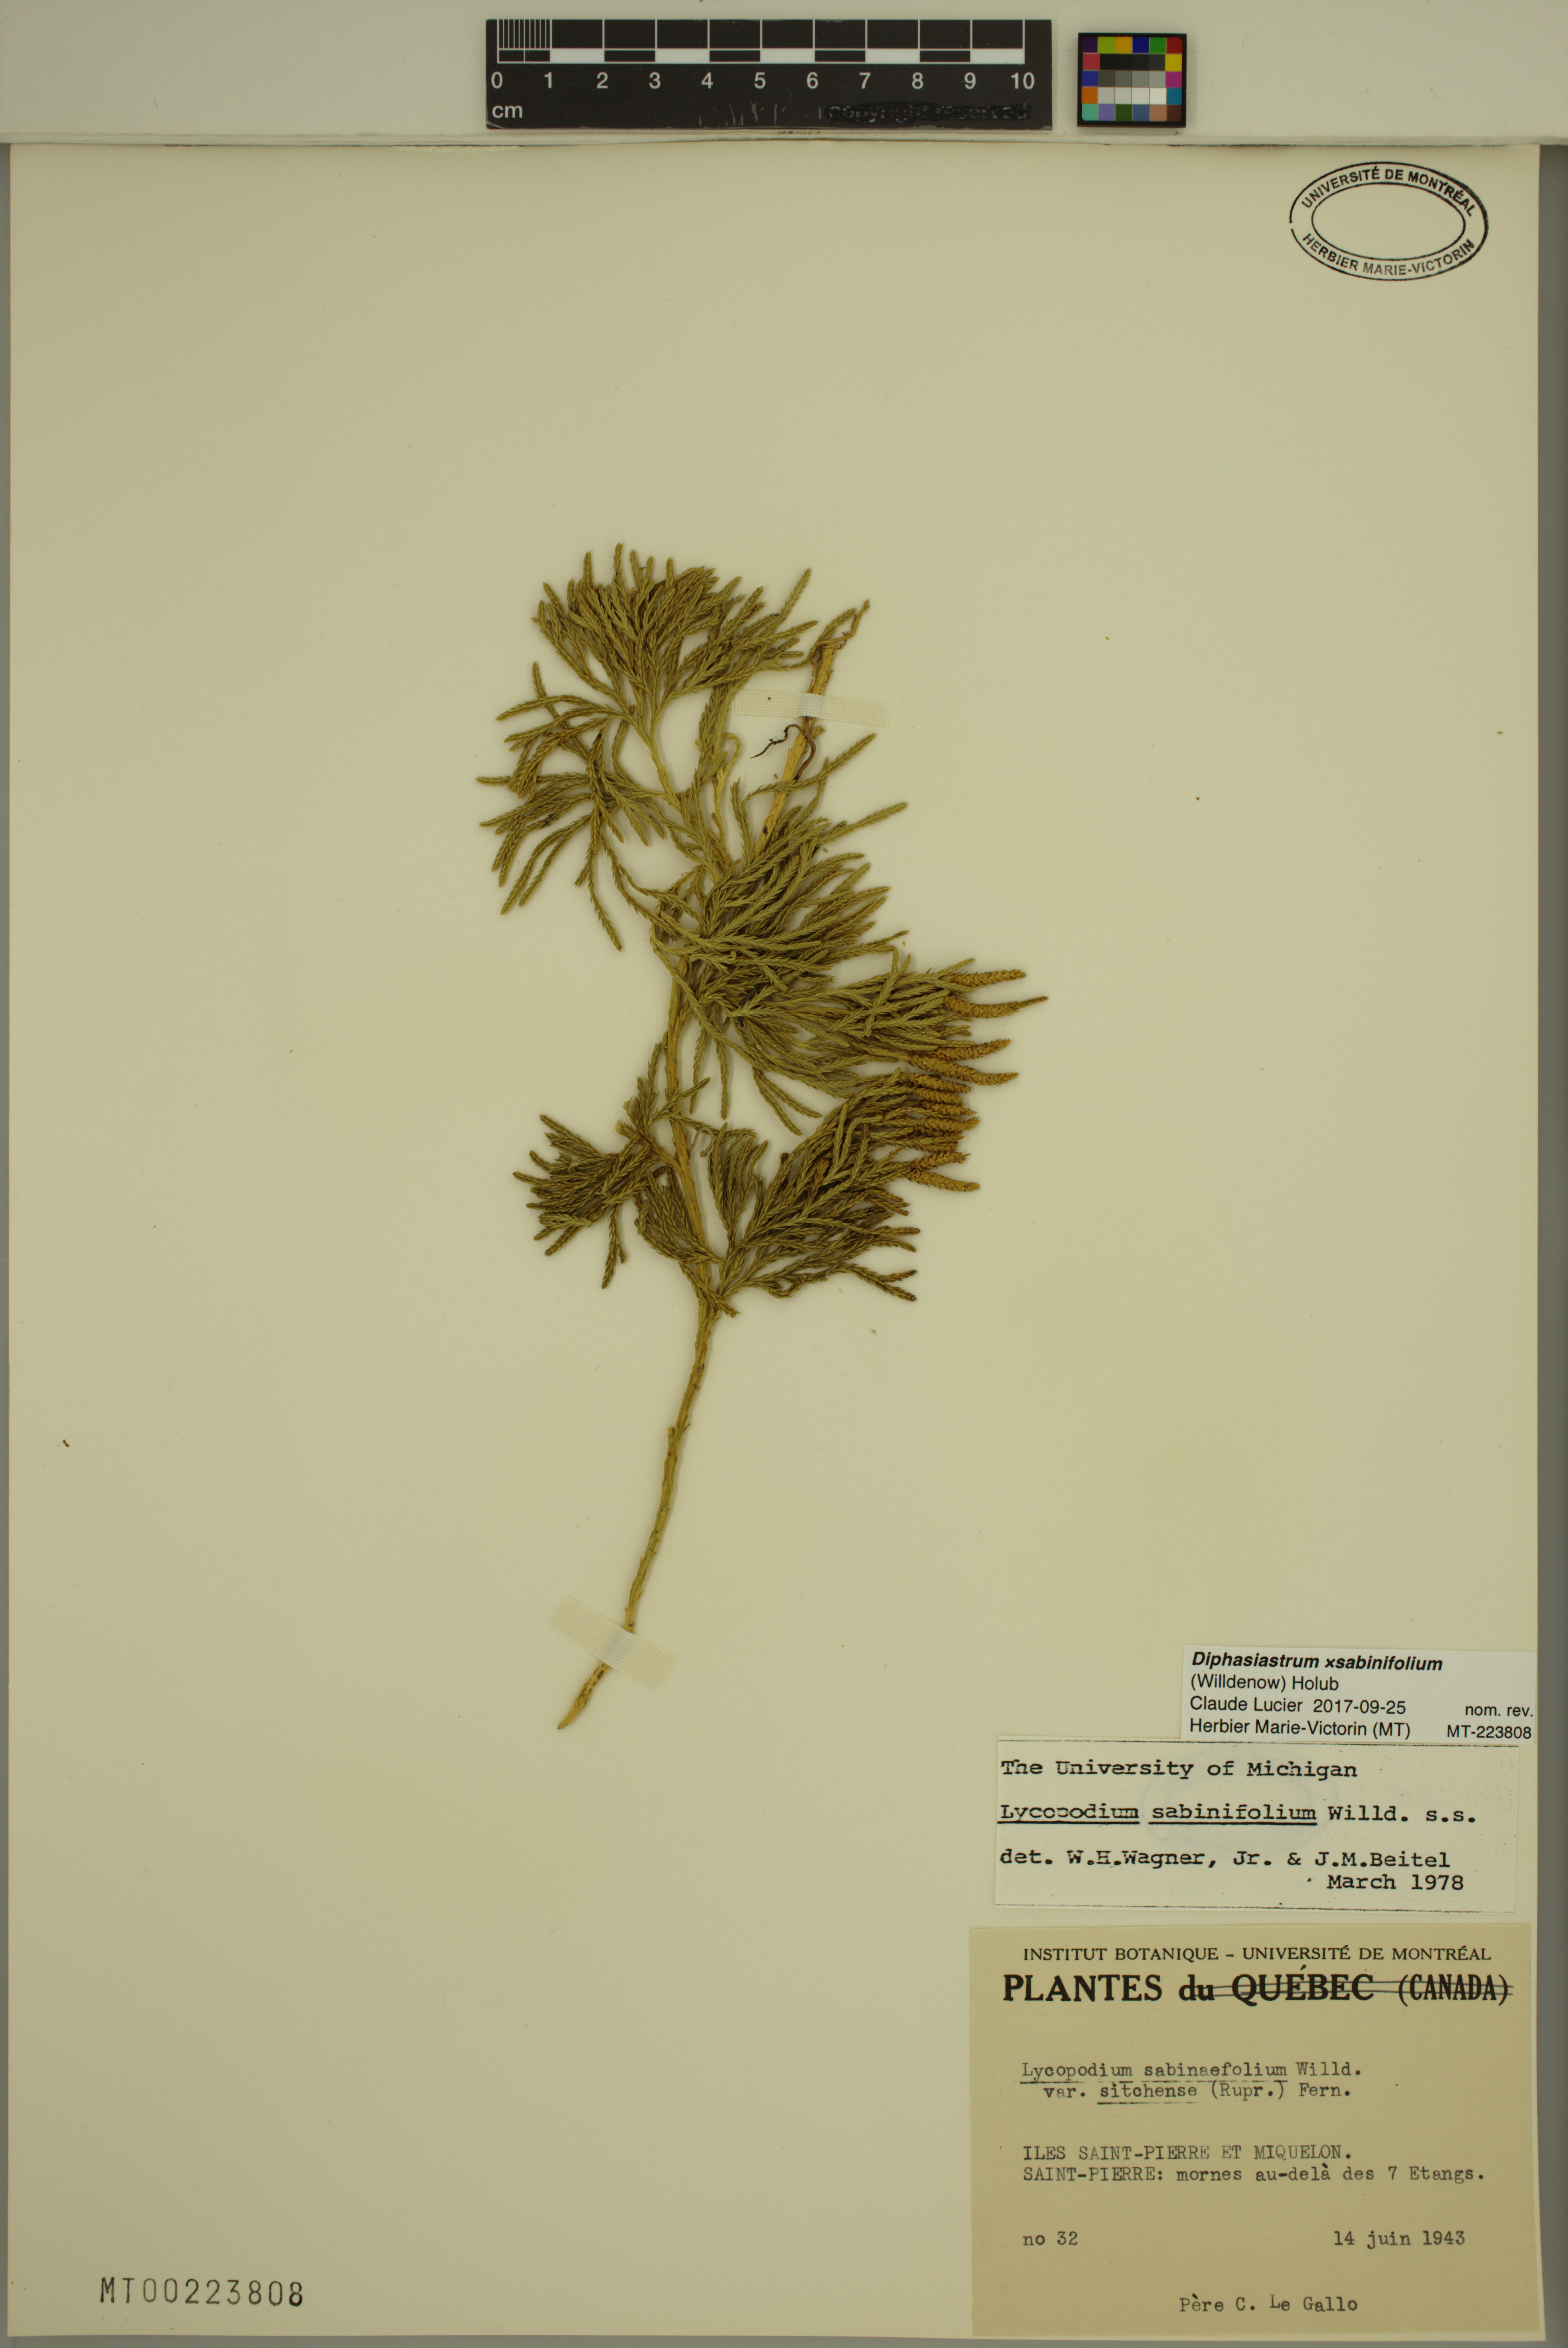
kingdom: Plantae
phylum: Tracheophyta
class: Lycopodiopsida
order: Lycopodiales
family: Lycopodiaceae
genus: Diphasiastrum
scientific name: Diphasiastrum sabinifolium
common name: Juniper clubmoss
